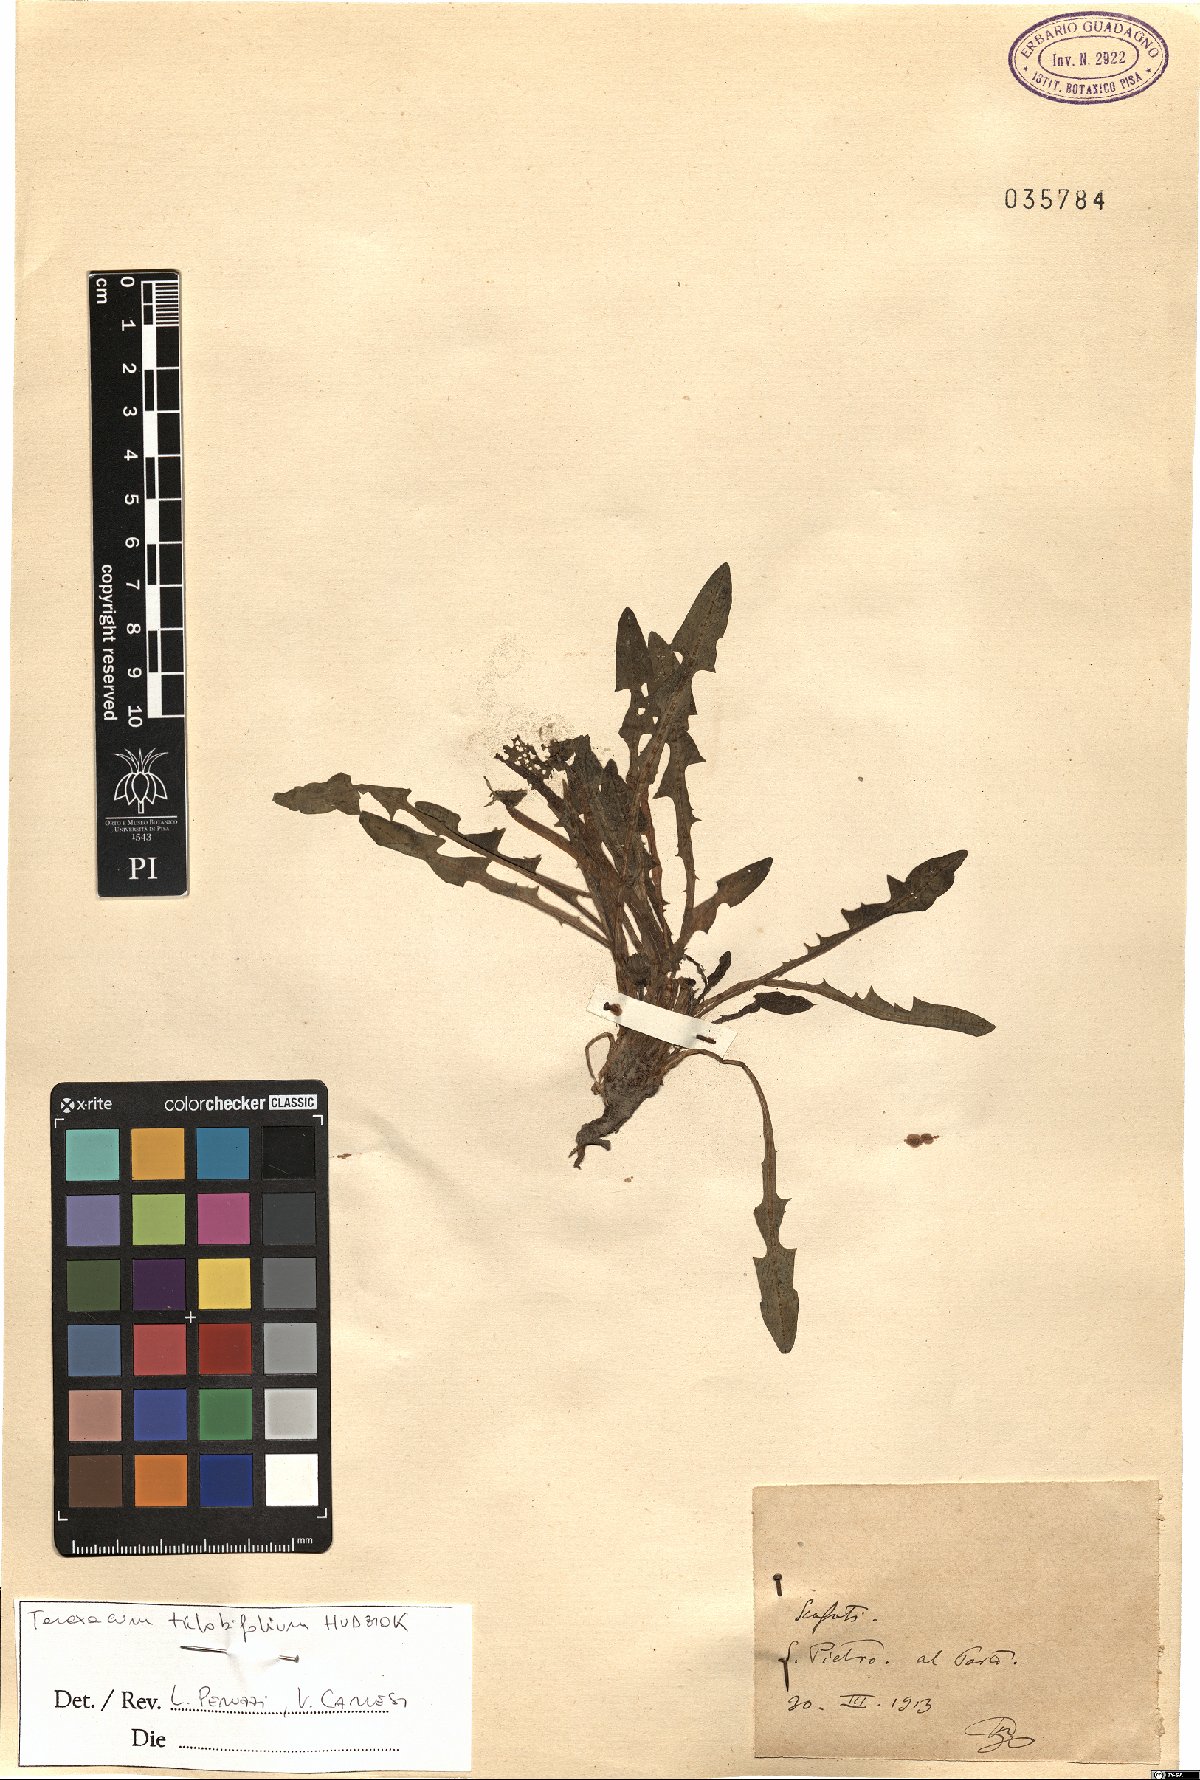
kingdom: Plantae
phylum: Tracheophyta
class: Magnoliopsida
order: Asterales
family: Asteraceae
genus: Taraxacum
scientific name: Taraxacum trilobifolium
